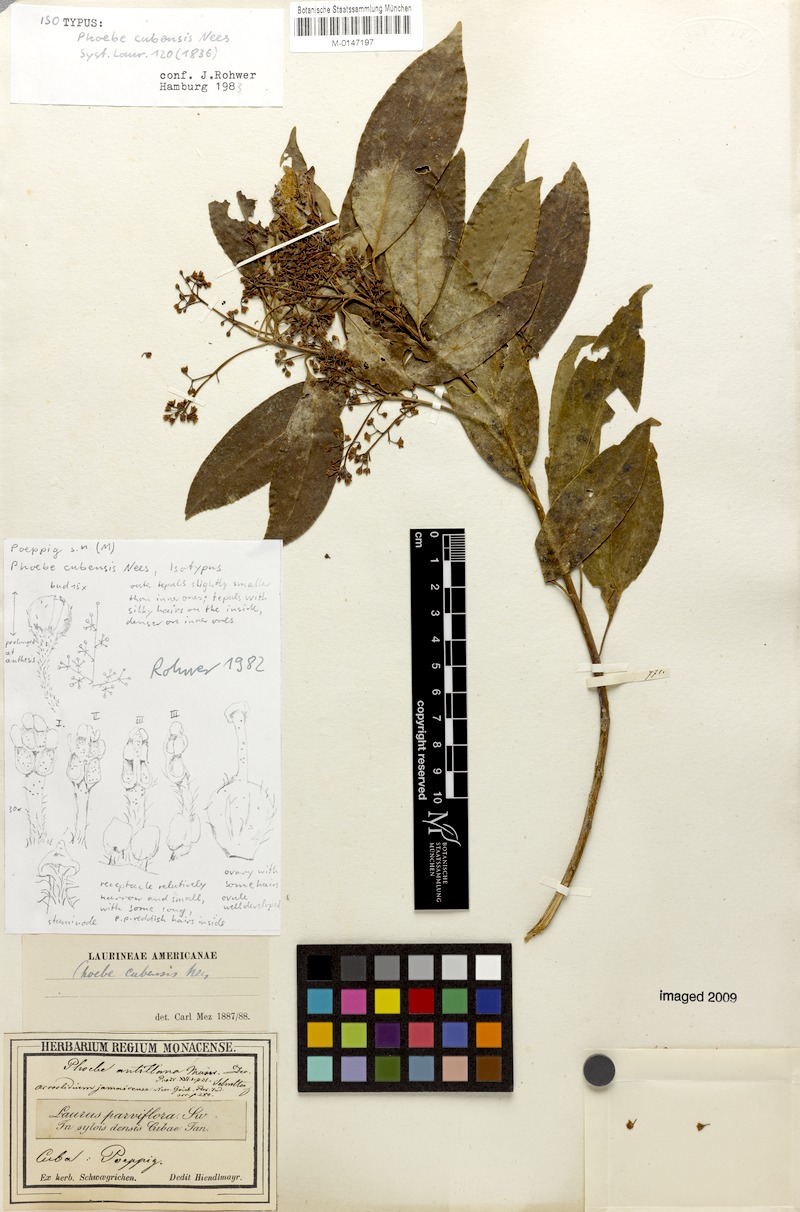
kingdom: Plantae
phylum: Tracheophyta
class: Magnoliopsida
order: Laurales
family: Lauraceae
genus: Aiouea
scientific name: Aiouea montana
